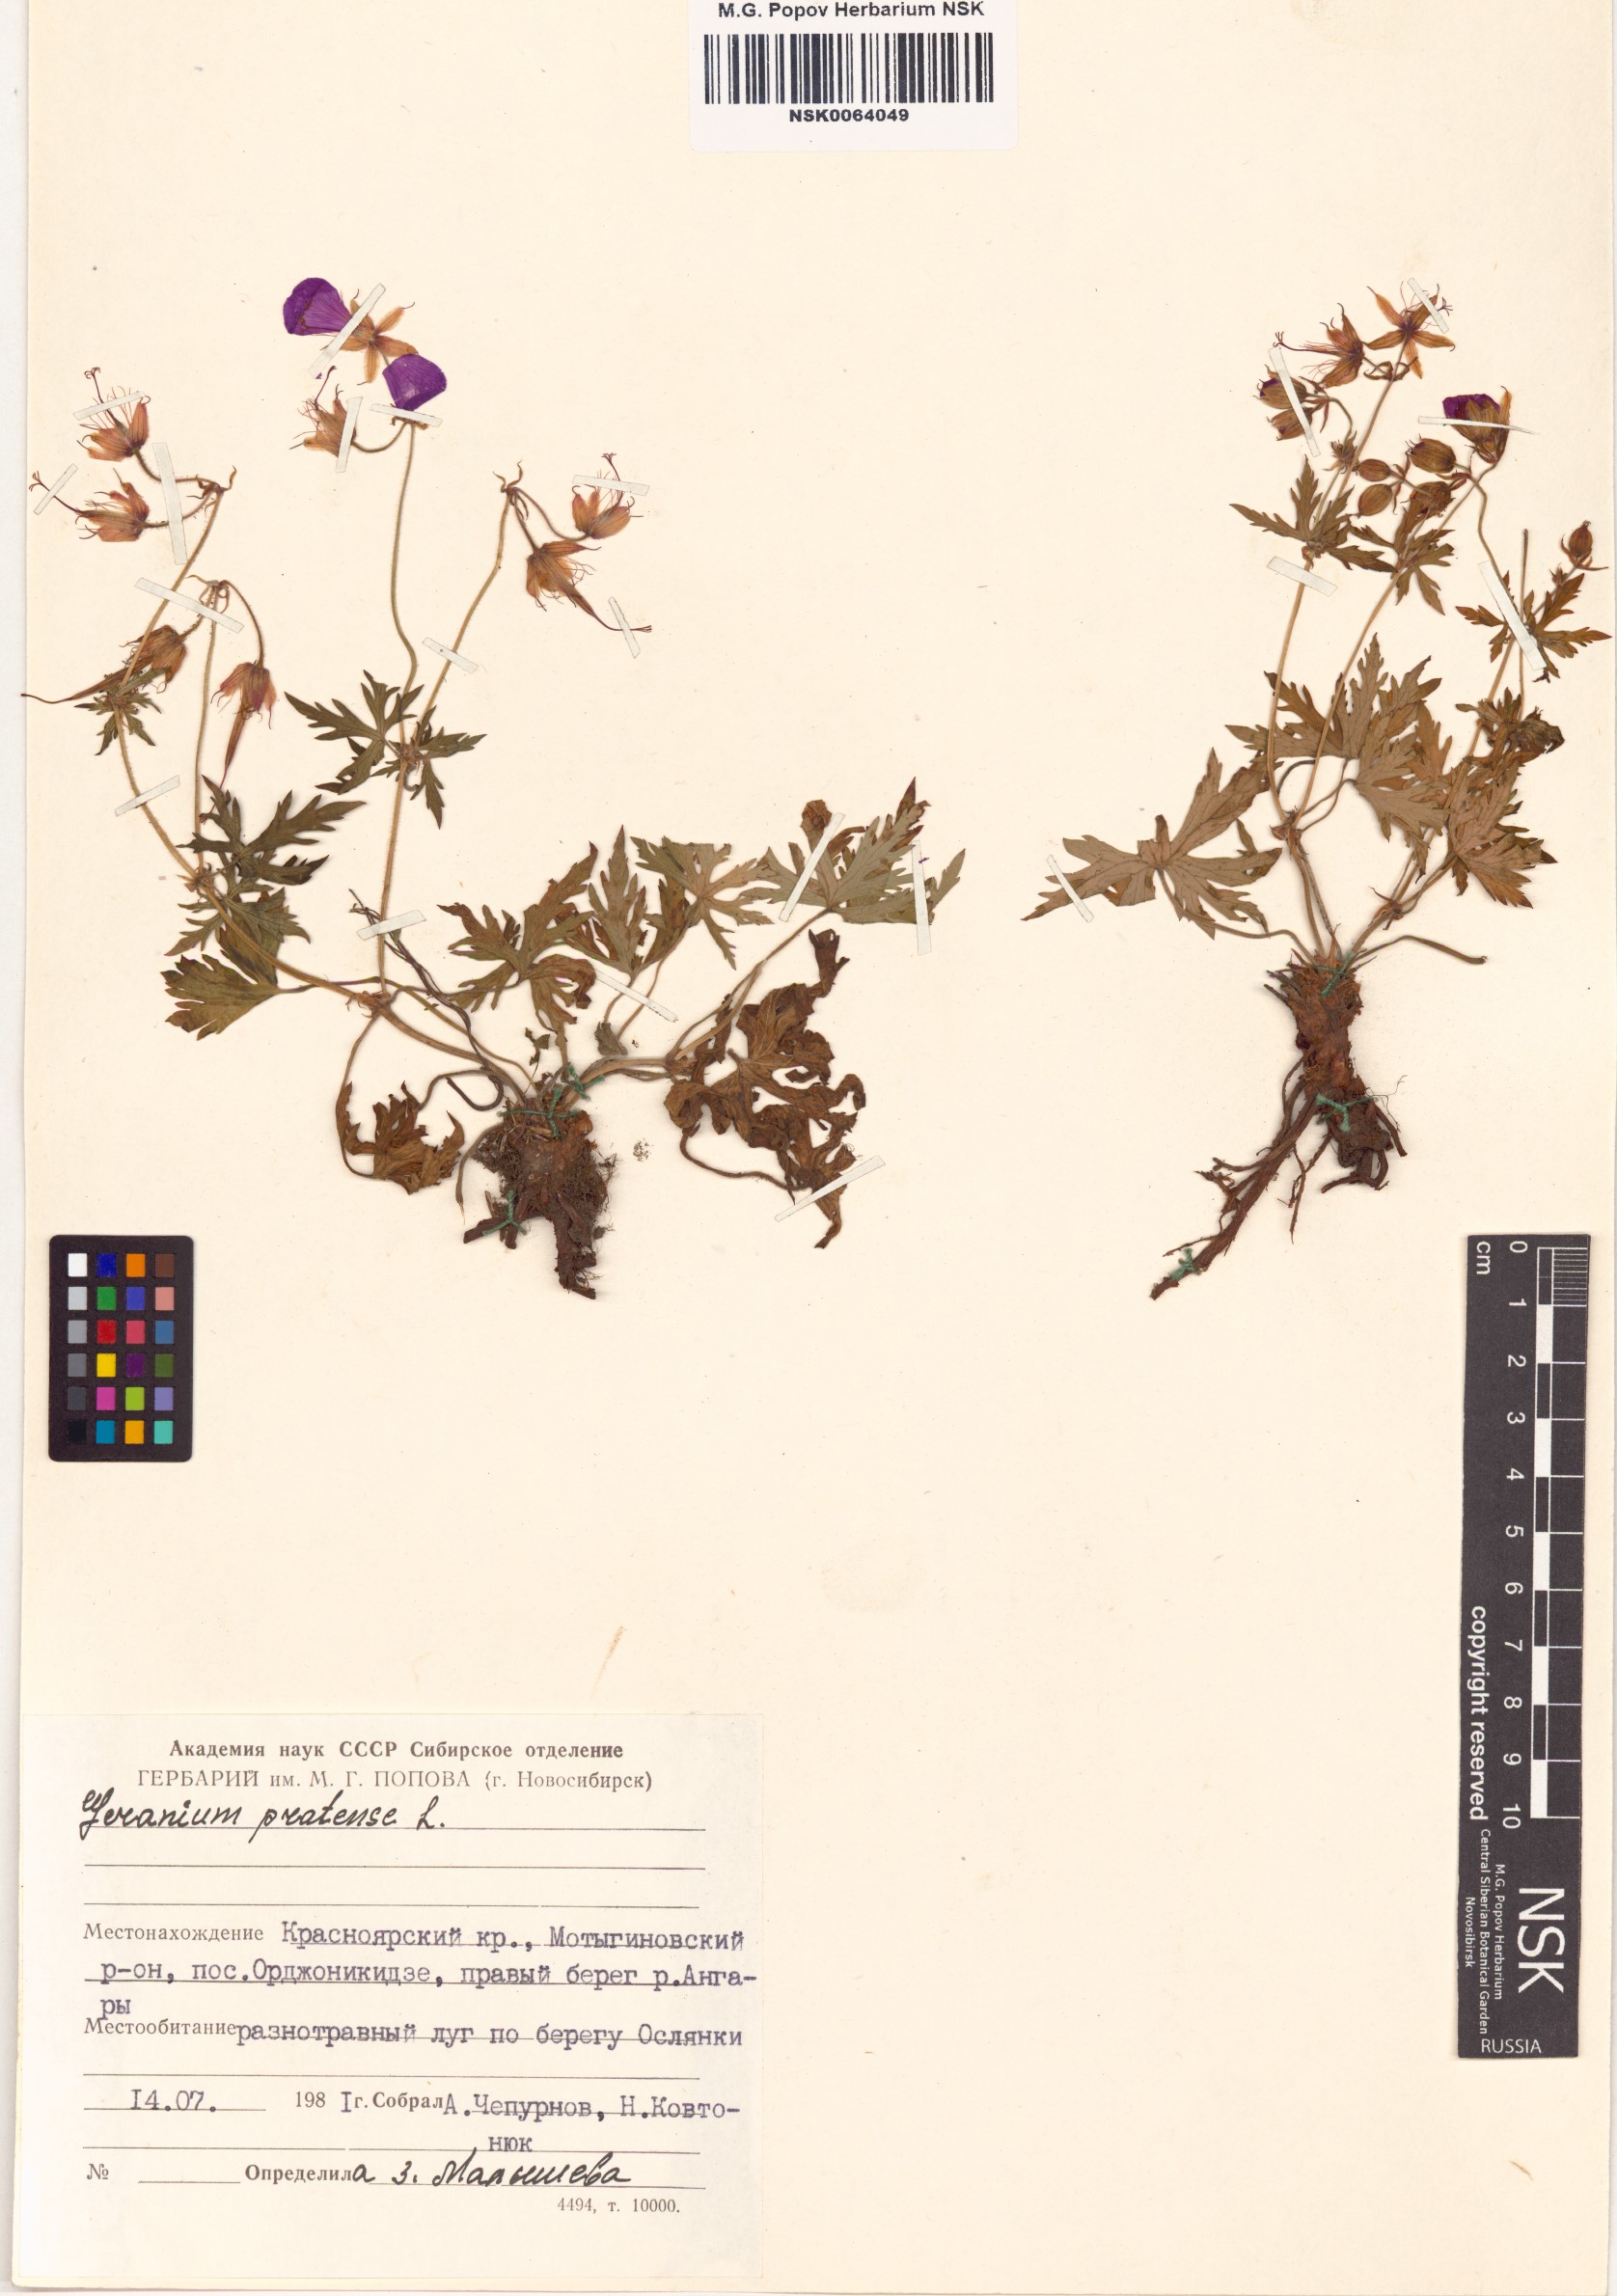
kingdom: Plantae
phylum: Tracheophyta
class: Magnoliopsida
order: Geraniales
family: Geraniaceae
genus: Geranium
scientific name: Geranium pratense
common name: Meadow crane's-bill
